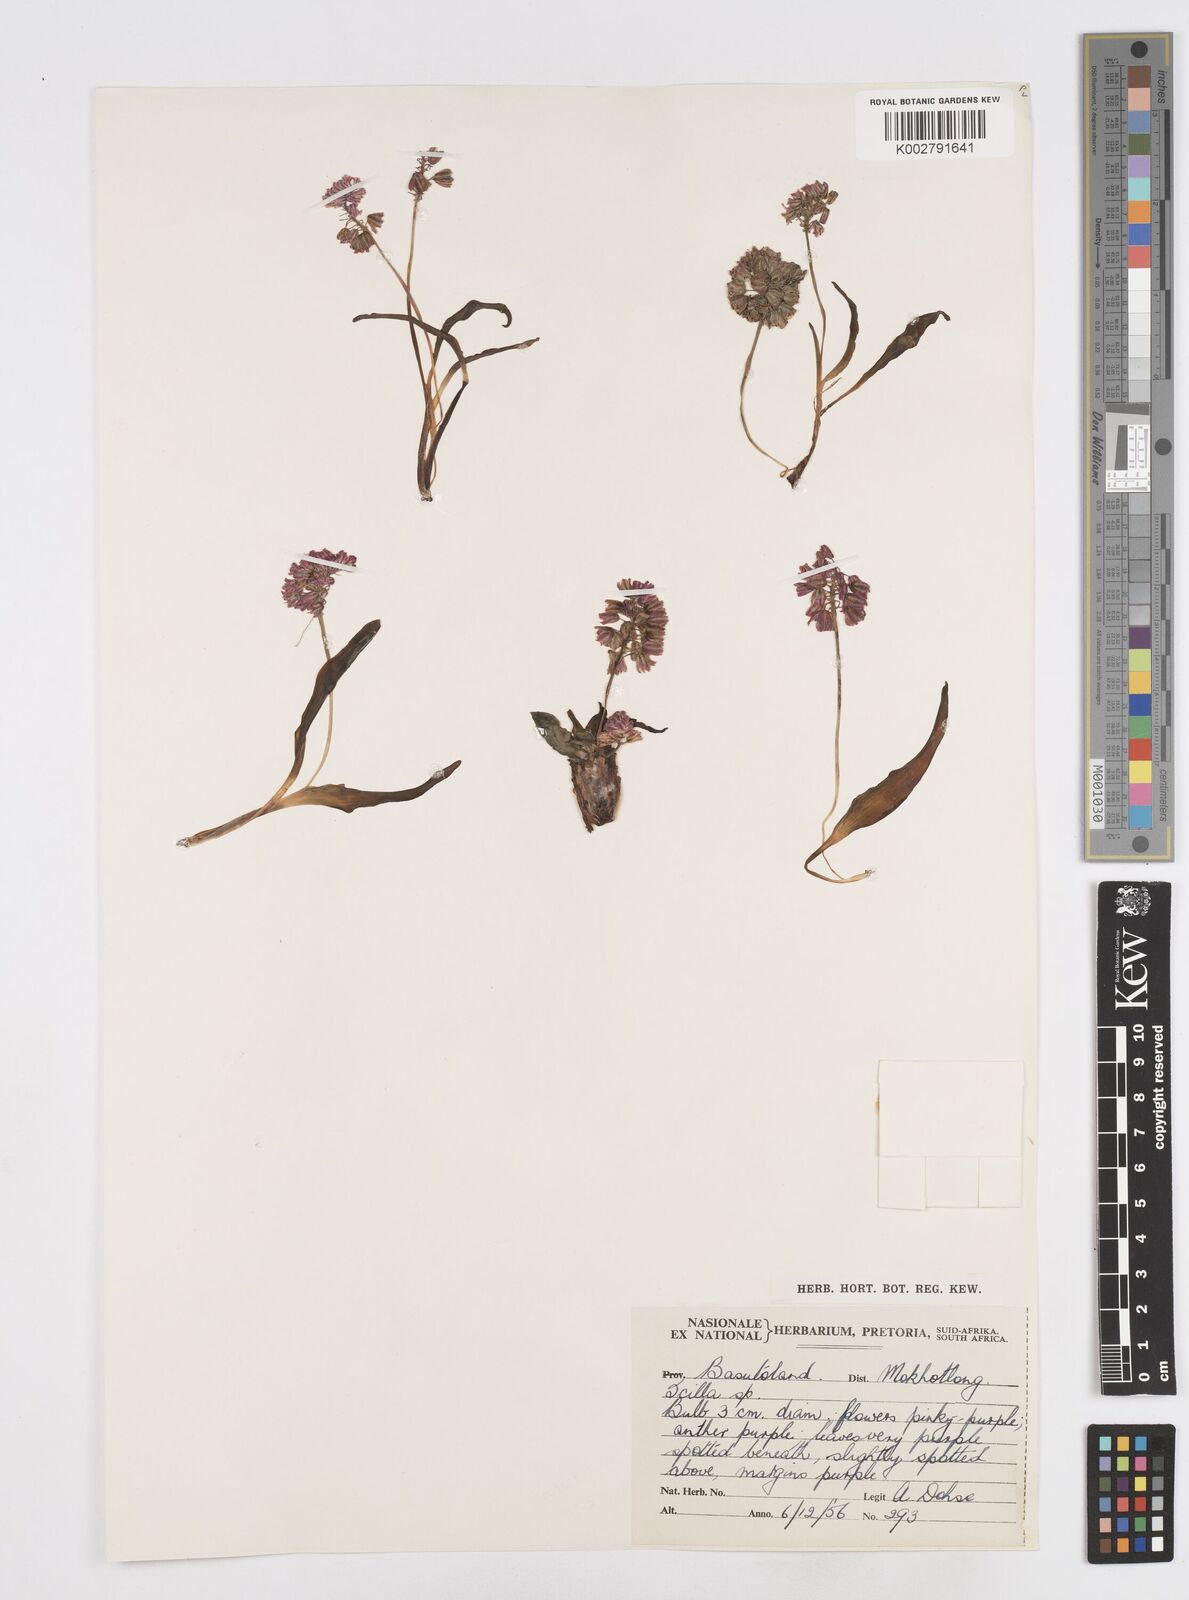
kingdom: Plantae
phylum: Tracheophyta
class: Liliopsida
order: Asparagales
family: Asparagaceae
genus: Scilla
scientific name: Scilla
